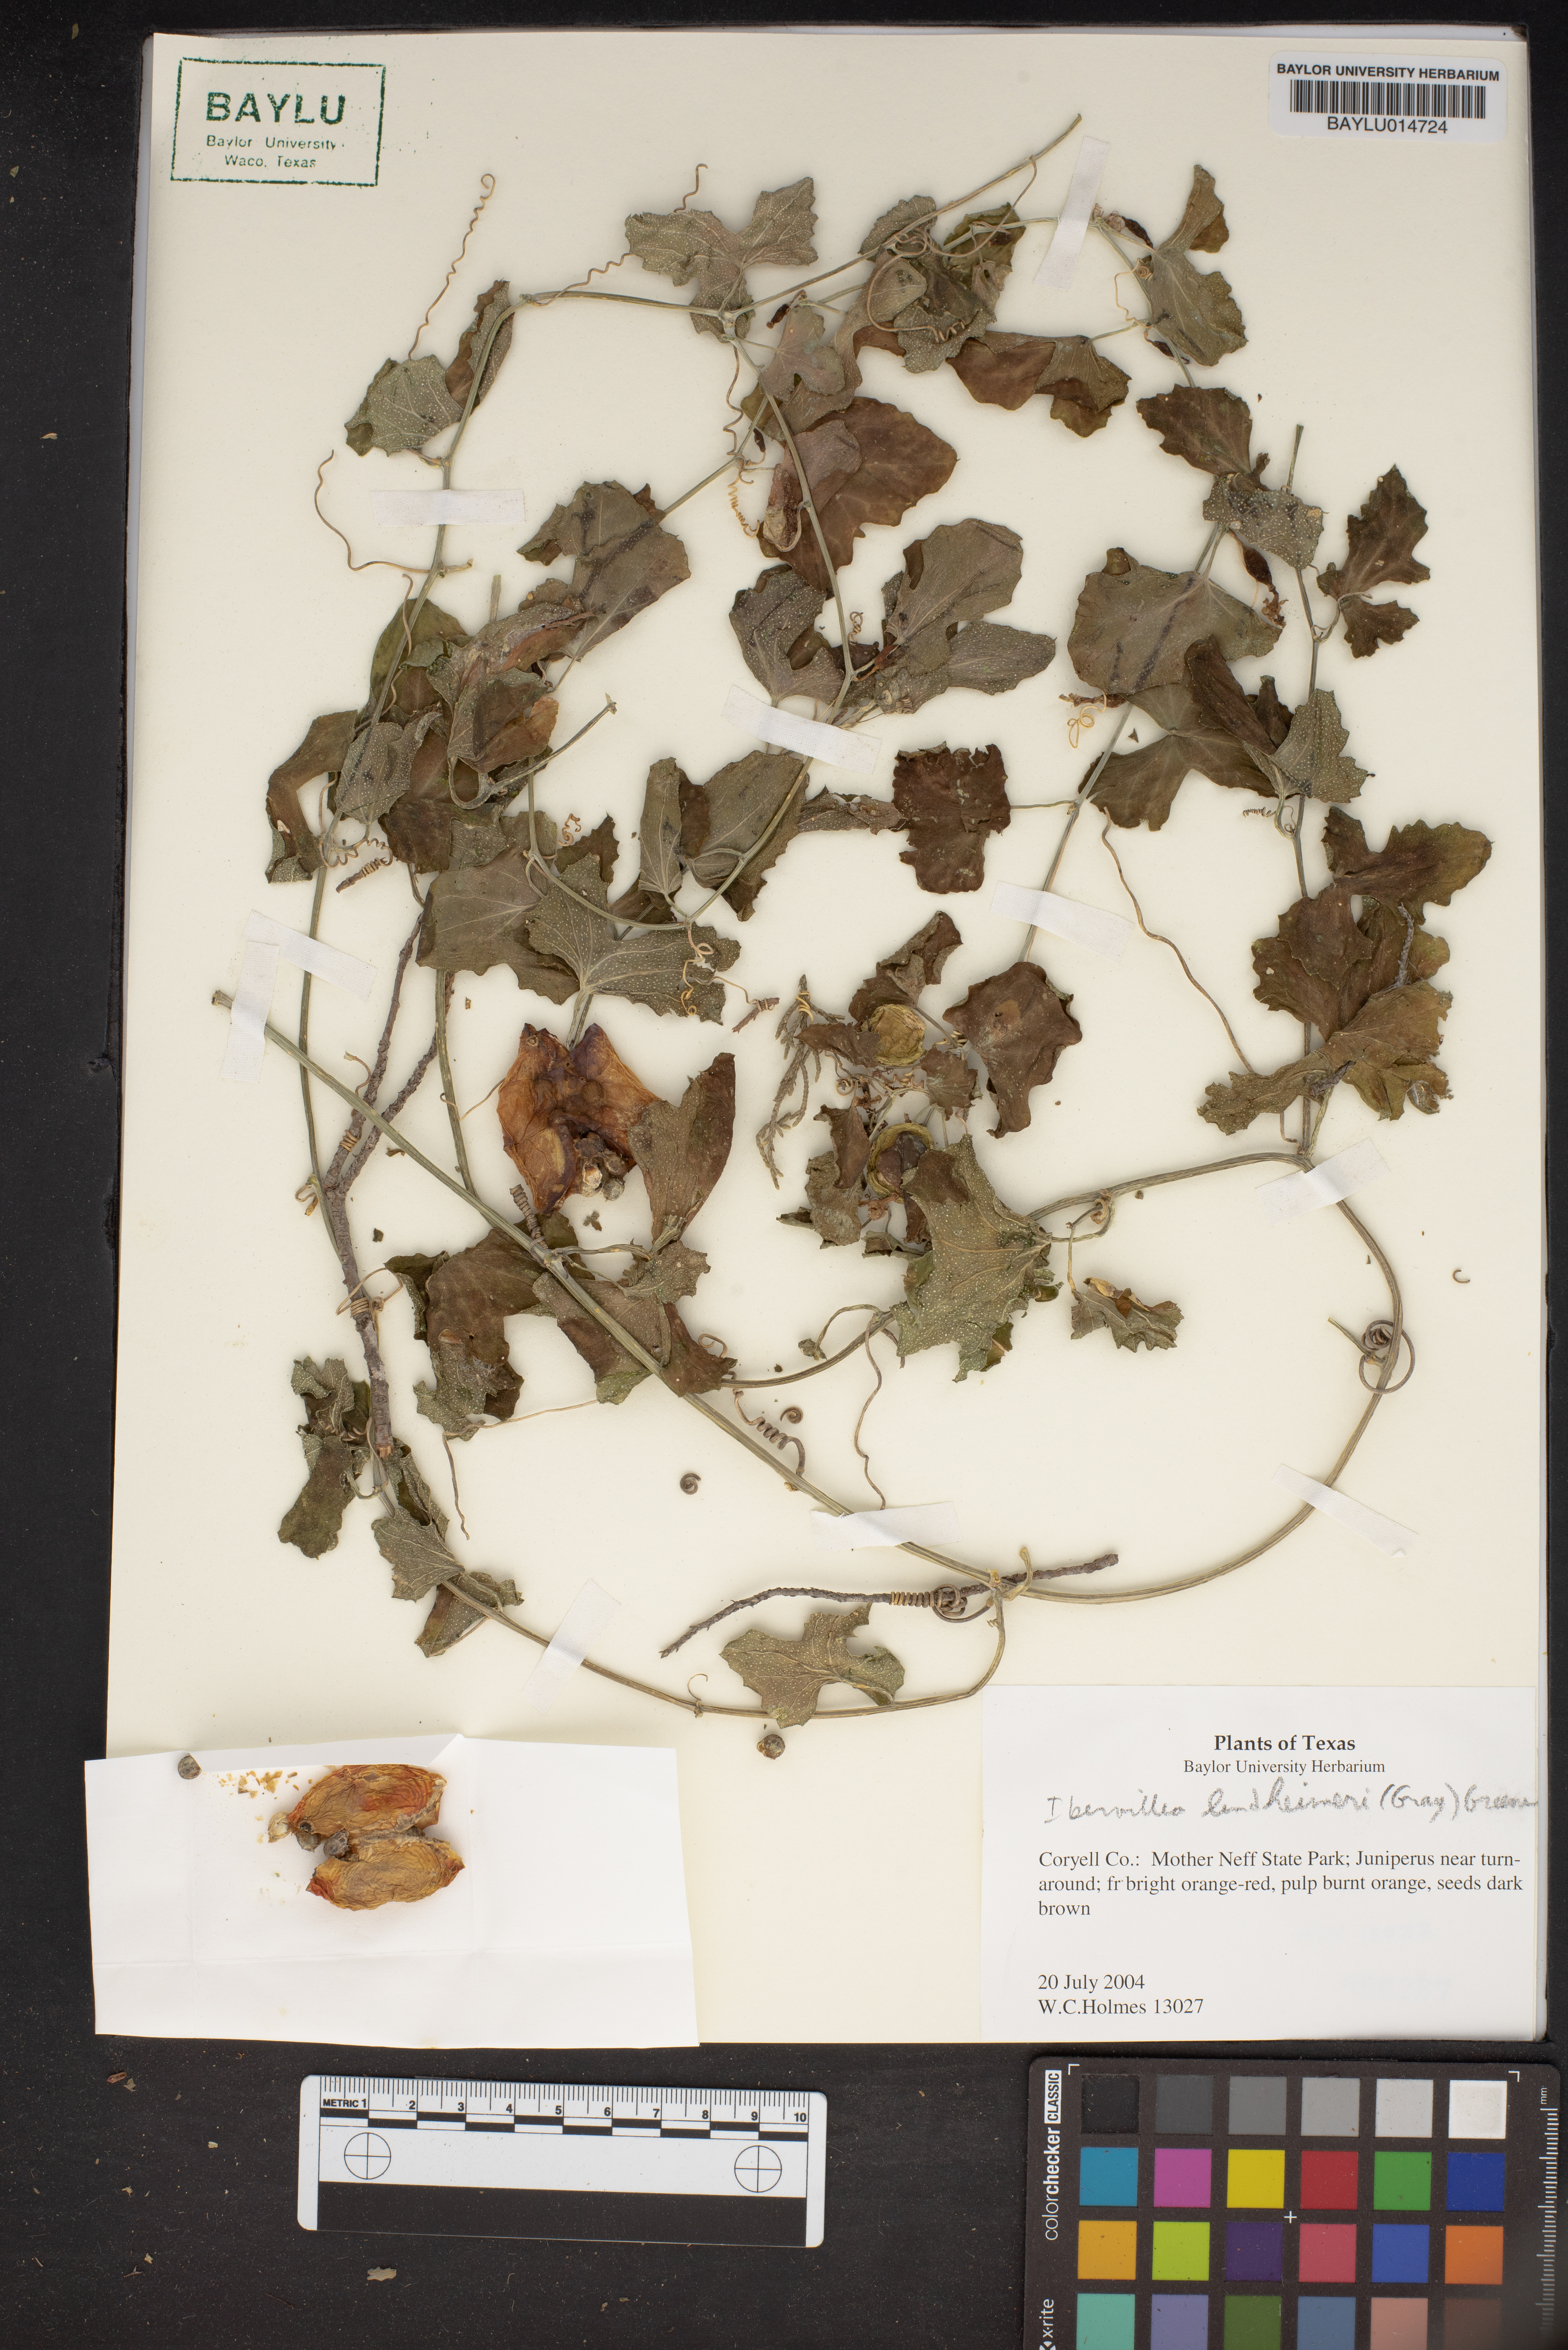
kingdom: Plantae
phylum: Tracheophyta
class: Magnoliopsida
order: Cucurbitales
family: Cucurbitaceae
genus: Ibervillea
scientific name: Ibervillea lindheimeri
